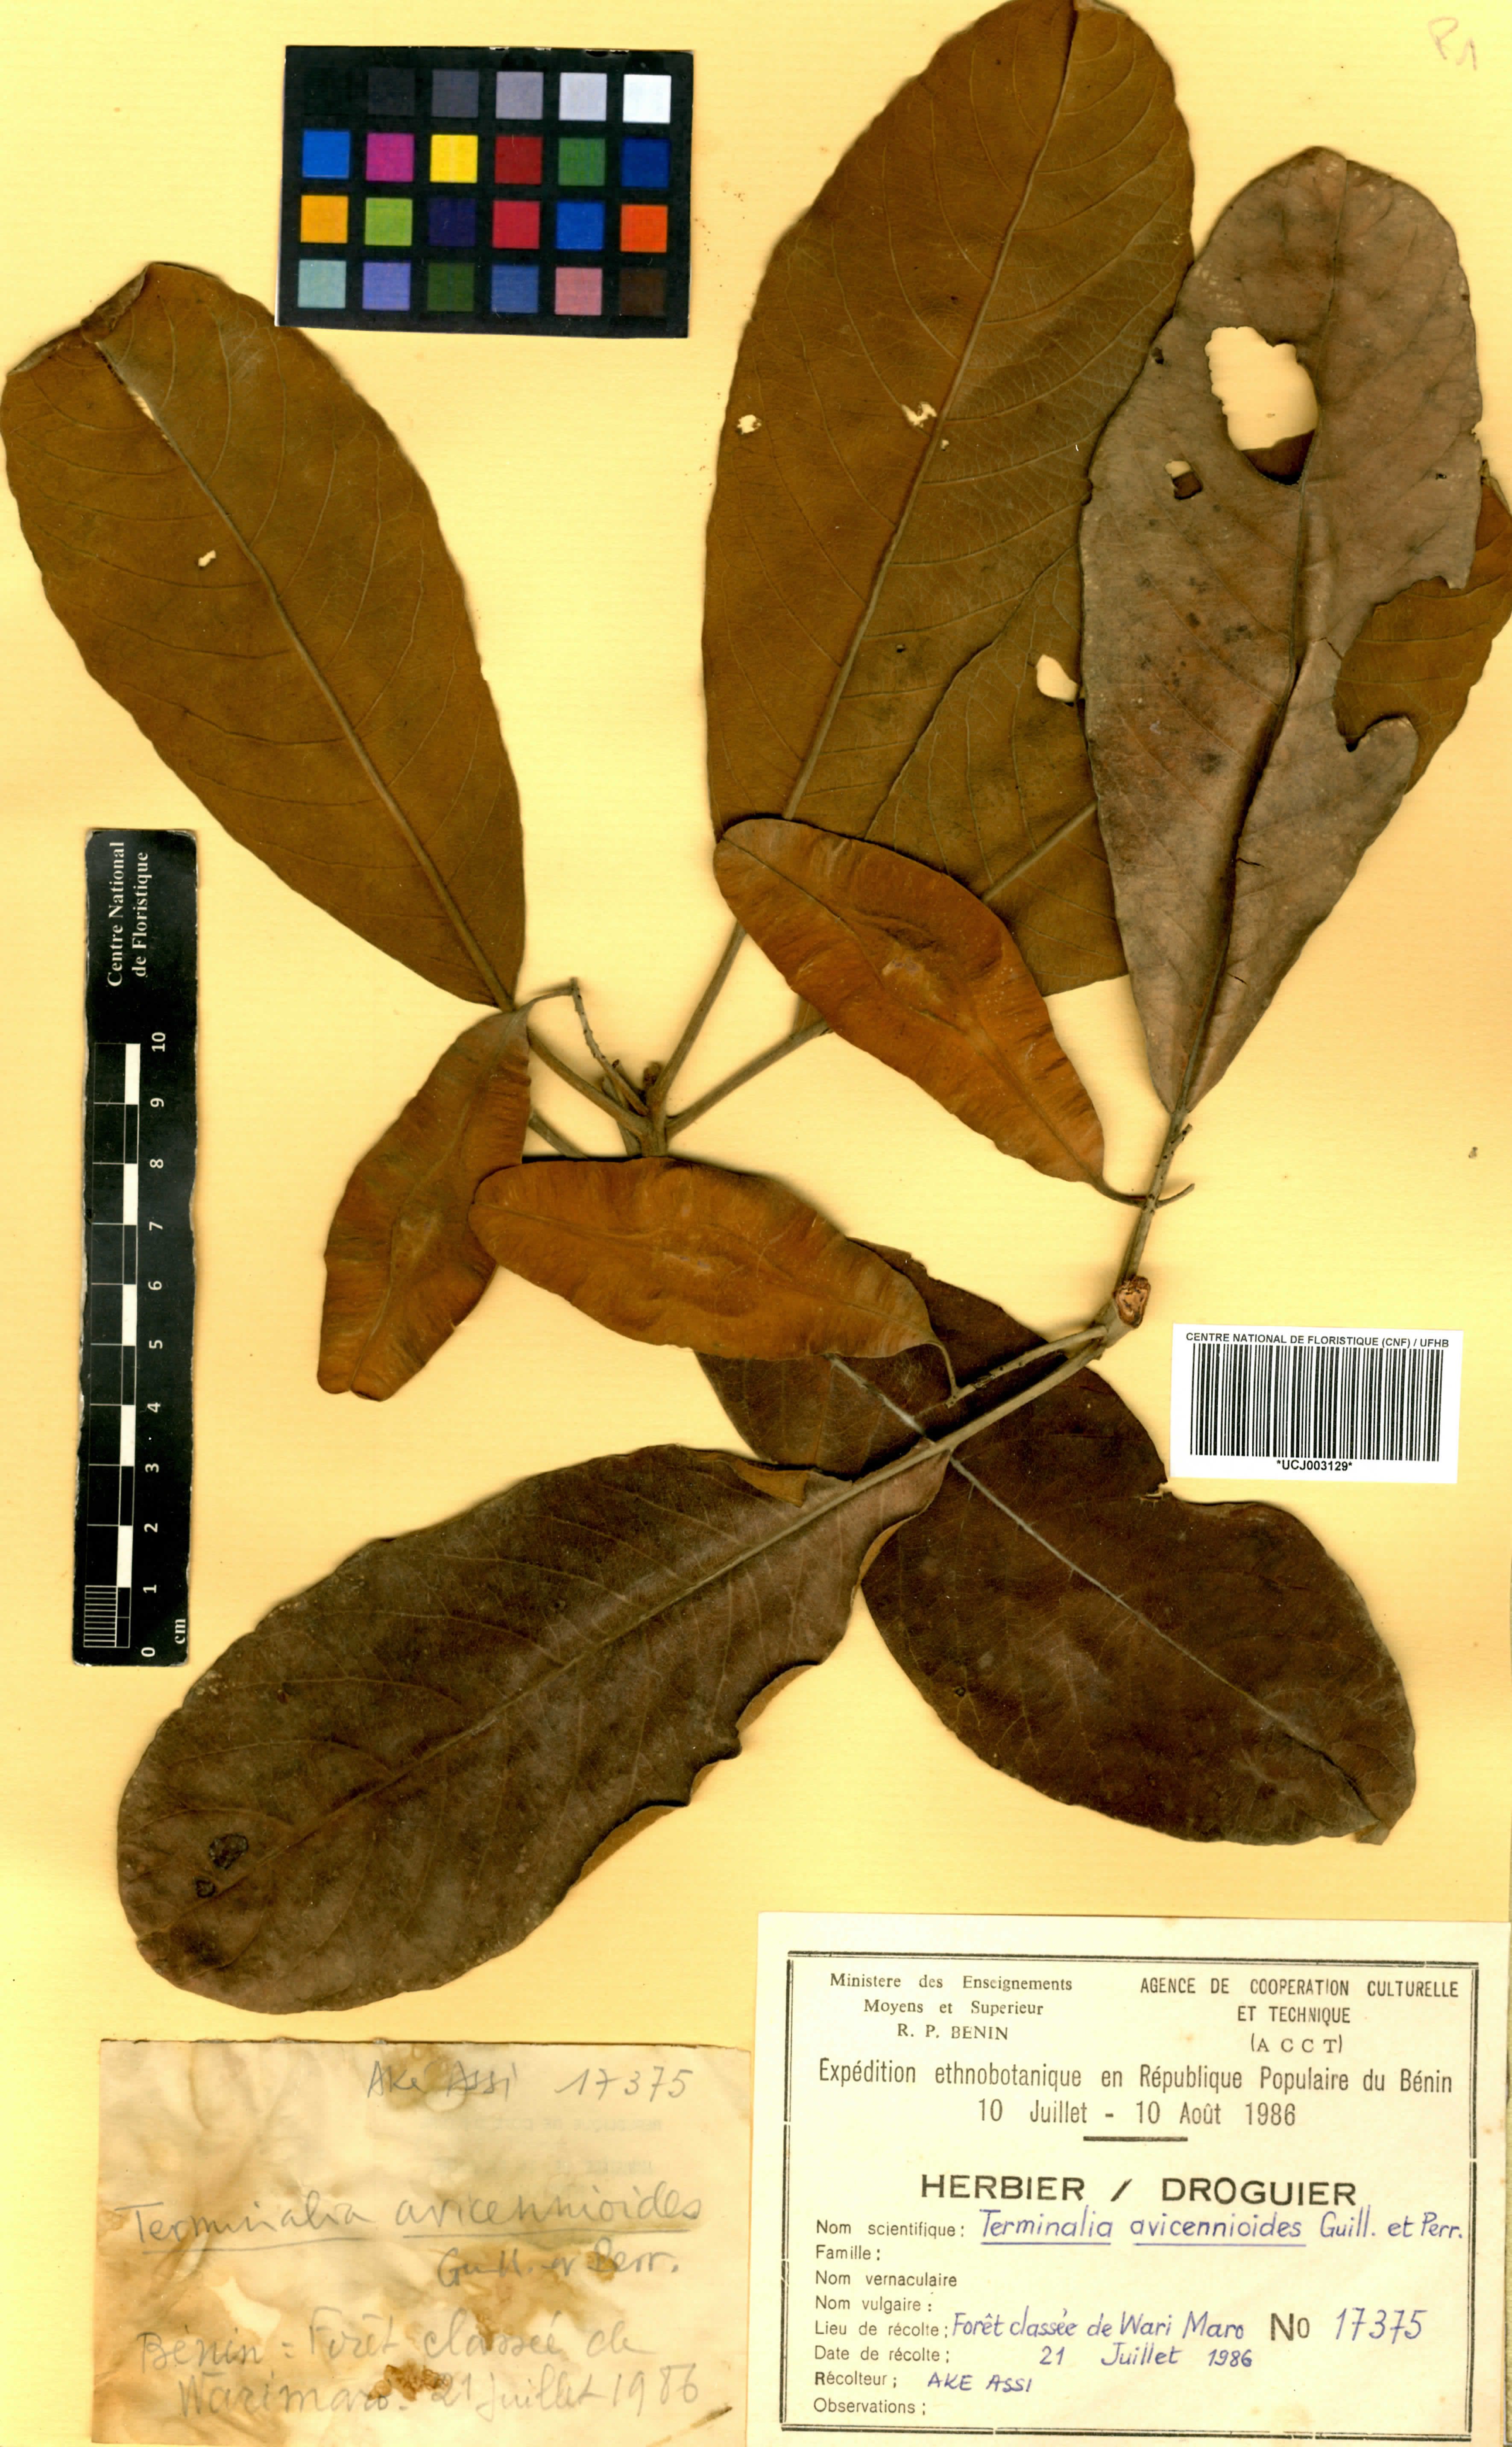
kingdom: Plantae
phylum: Tracheophyta
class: Magnoliopsida
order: Myrtales
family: Combretaceae
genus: Terminalia
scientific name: Terminalia avicennioides
